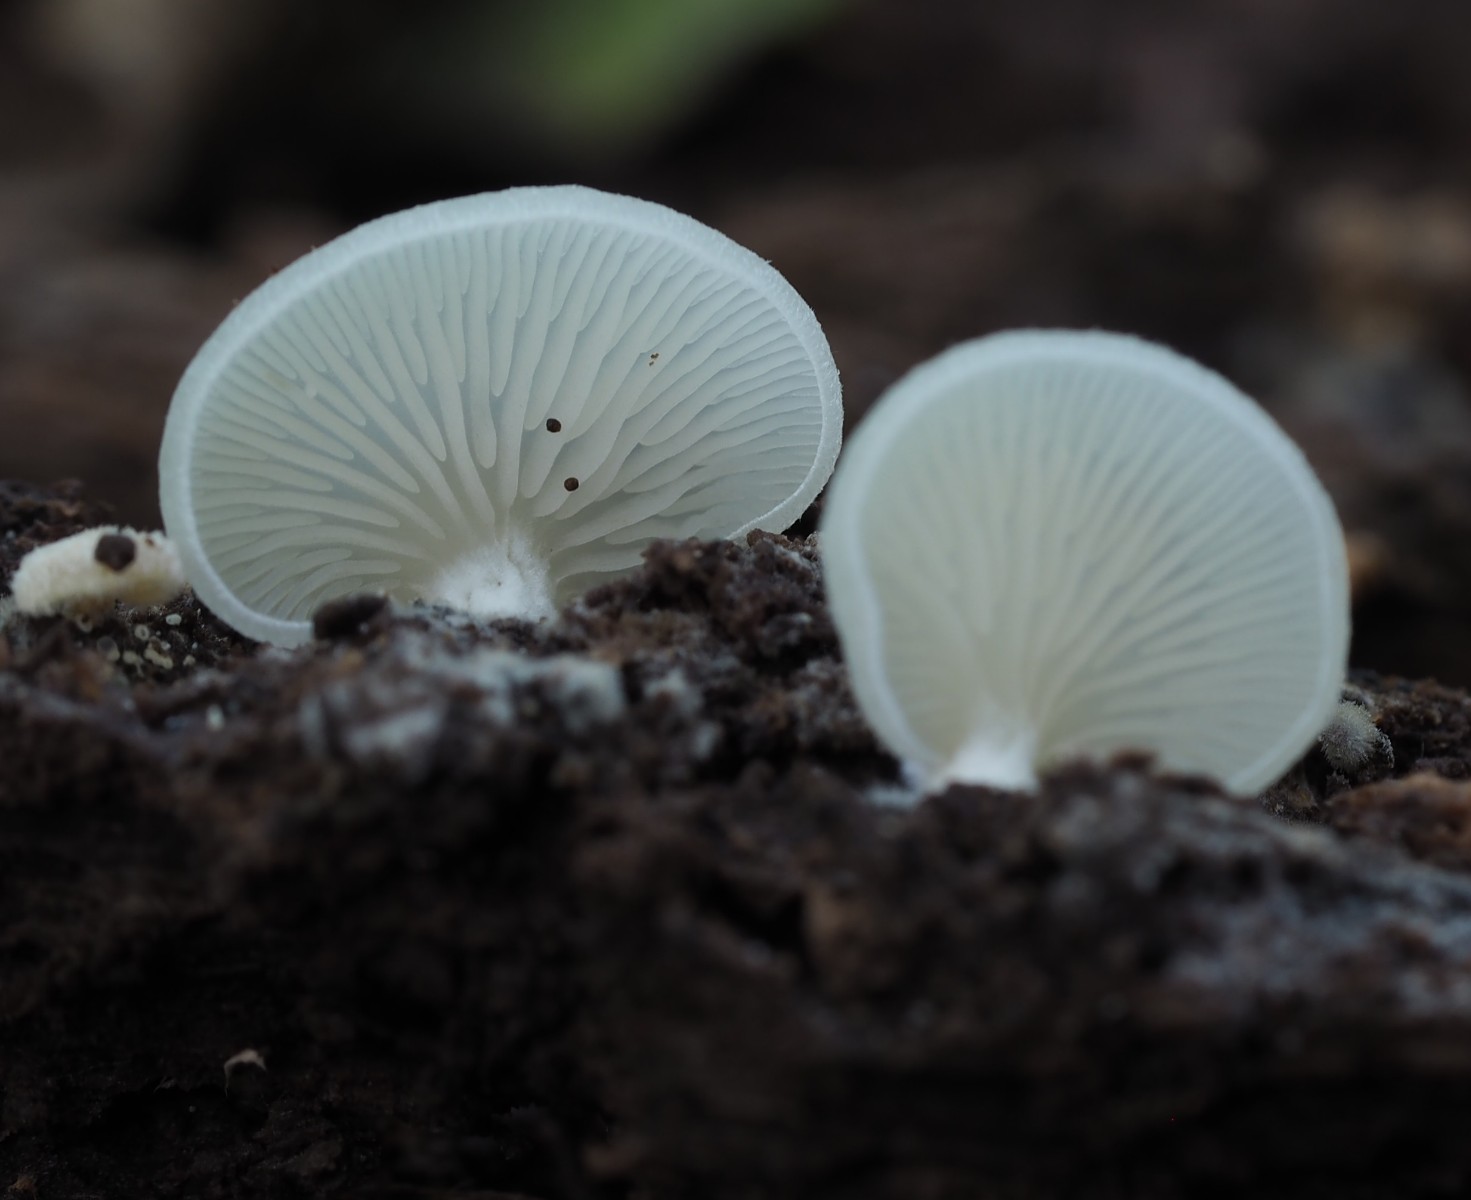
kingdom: Fungi
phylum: Basidiomycota
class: Agaricomycetes
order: Agaricales
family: Entolomataceae
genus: Clitopilus
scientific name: Clitopilus hobsonii
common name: Miller's oysterling
